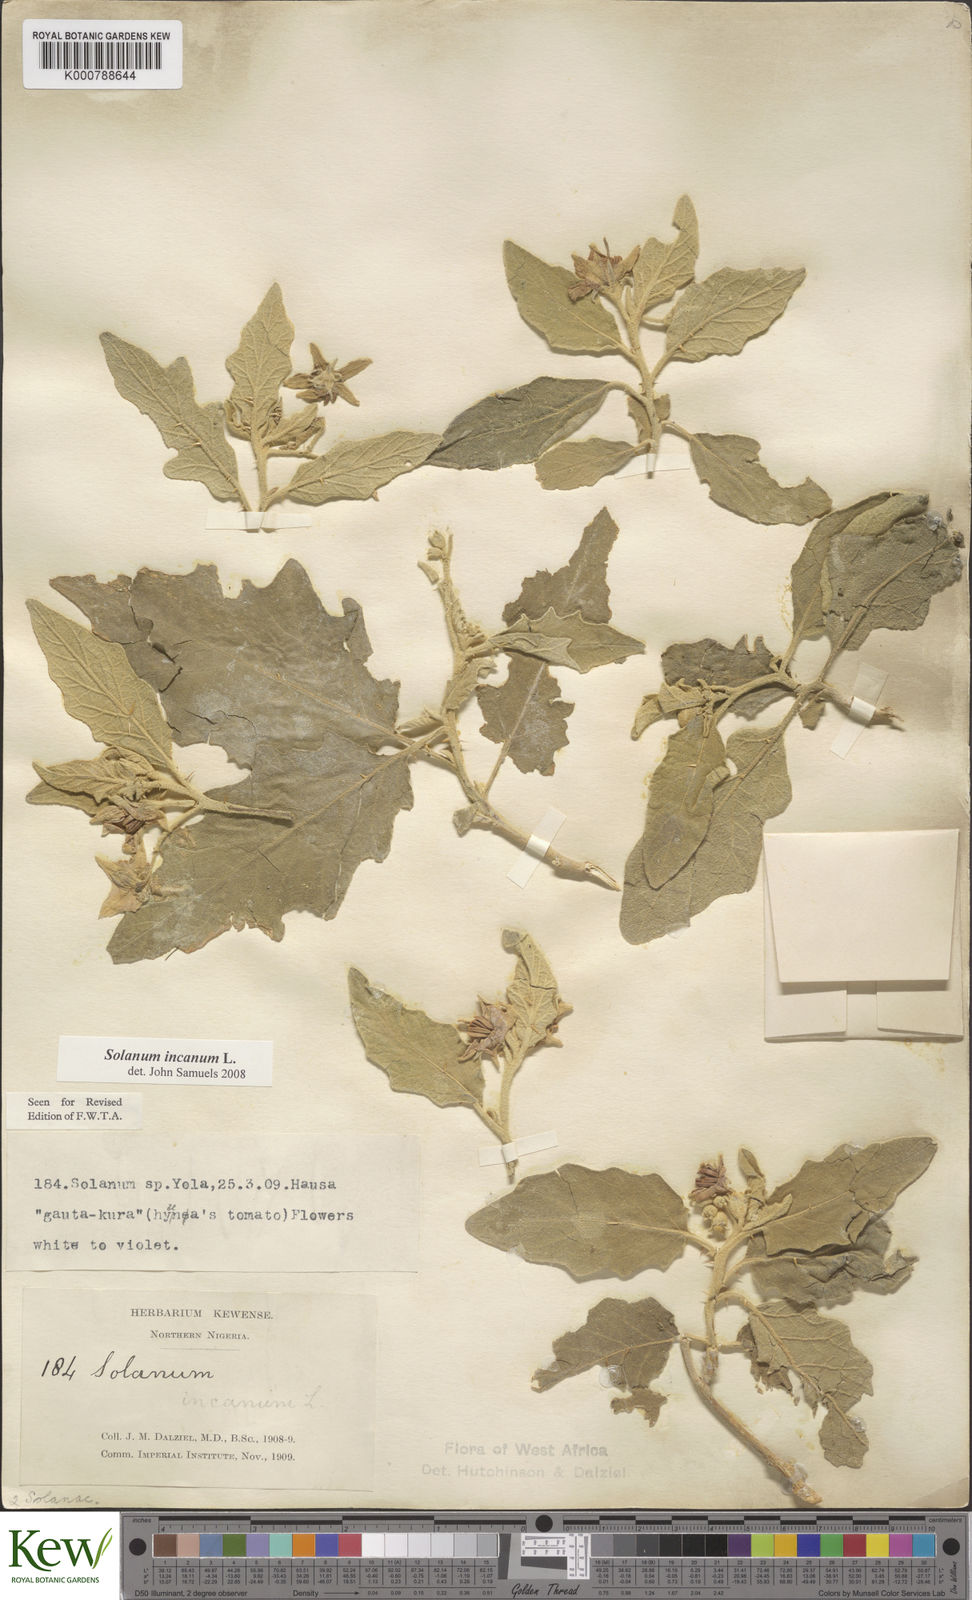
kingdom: Plantae
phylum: Tracheophyta
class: Magnoliopsida
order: Solanales
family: Solanaceae
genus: Solanum
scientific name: Solanum incanum
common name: Bitter apple
